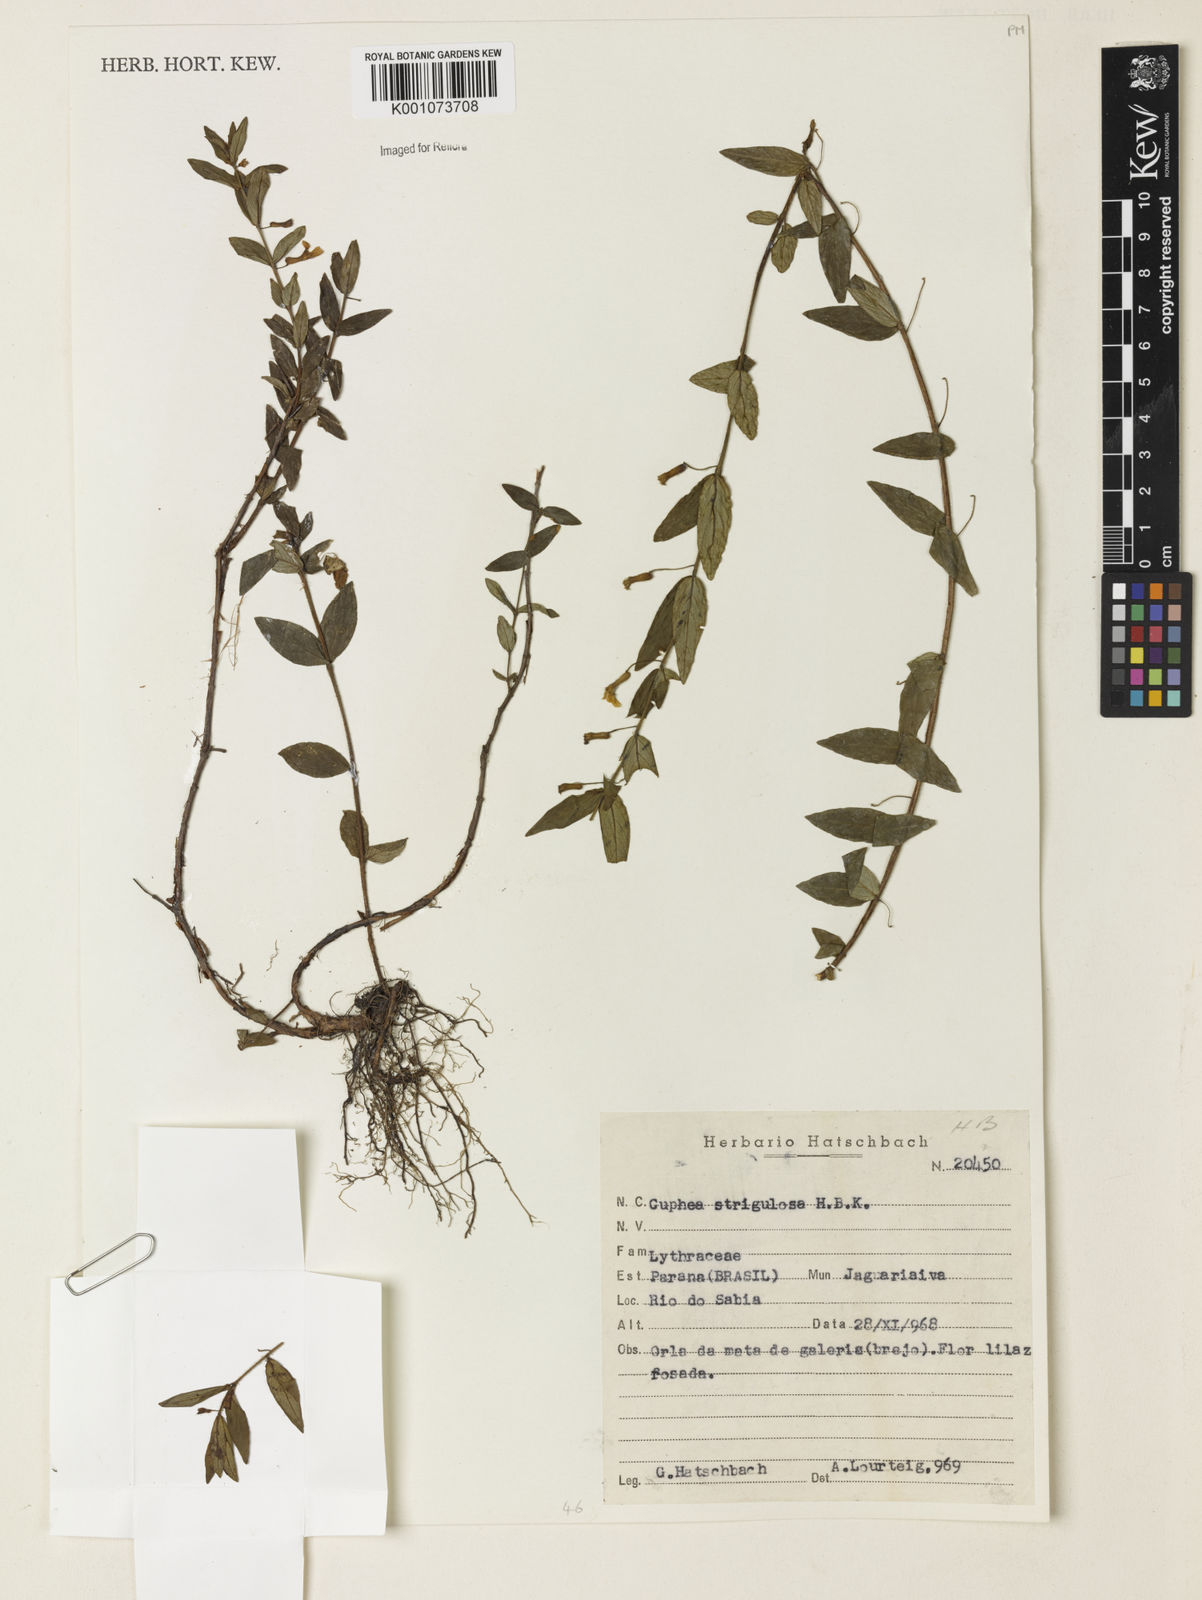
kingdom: Plantae
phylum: Tracheophyta
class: Magnoliopsida
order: Myrtales
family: Lythraceae
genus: Cuphea
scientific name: Cuphea strigulosa
